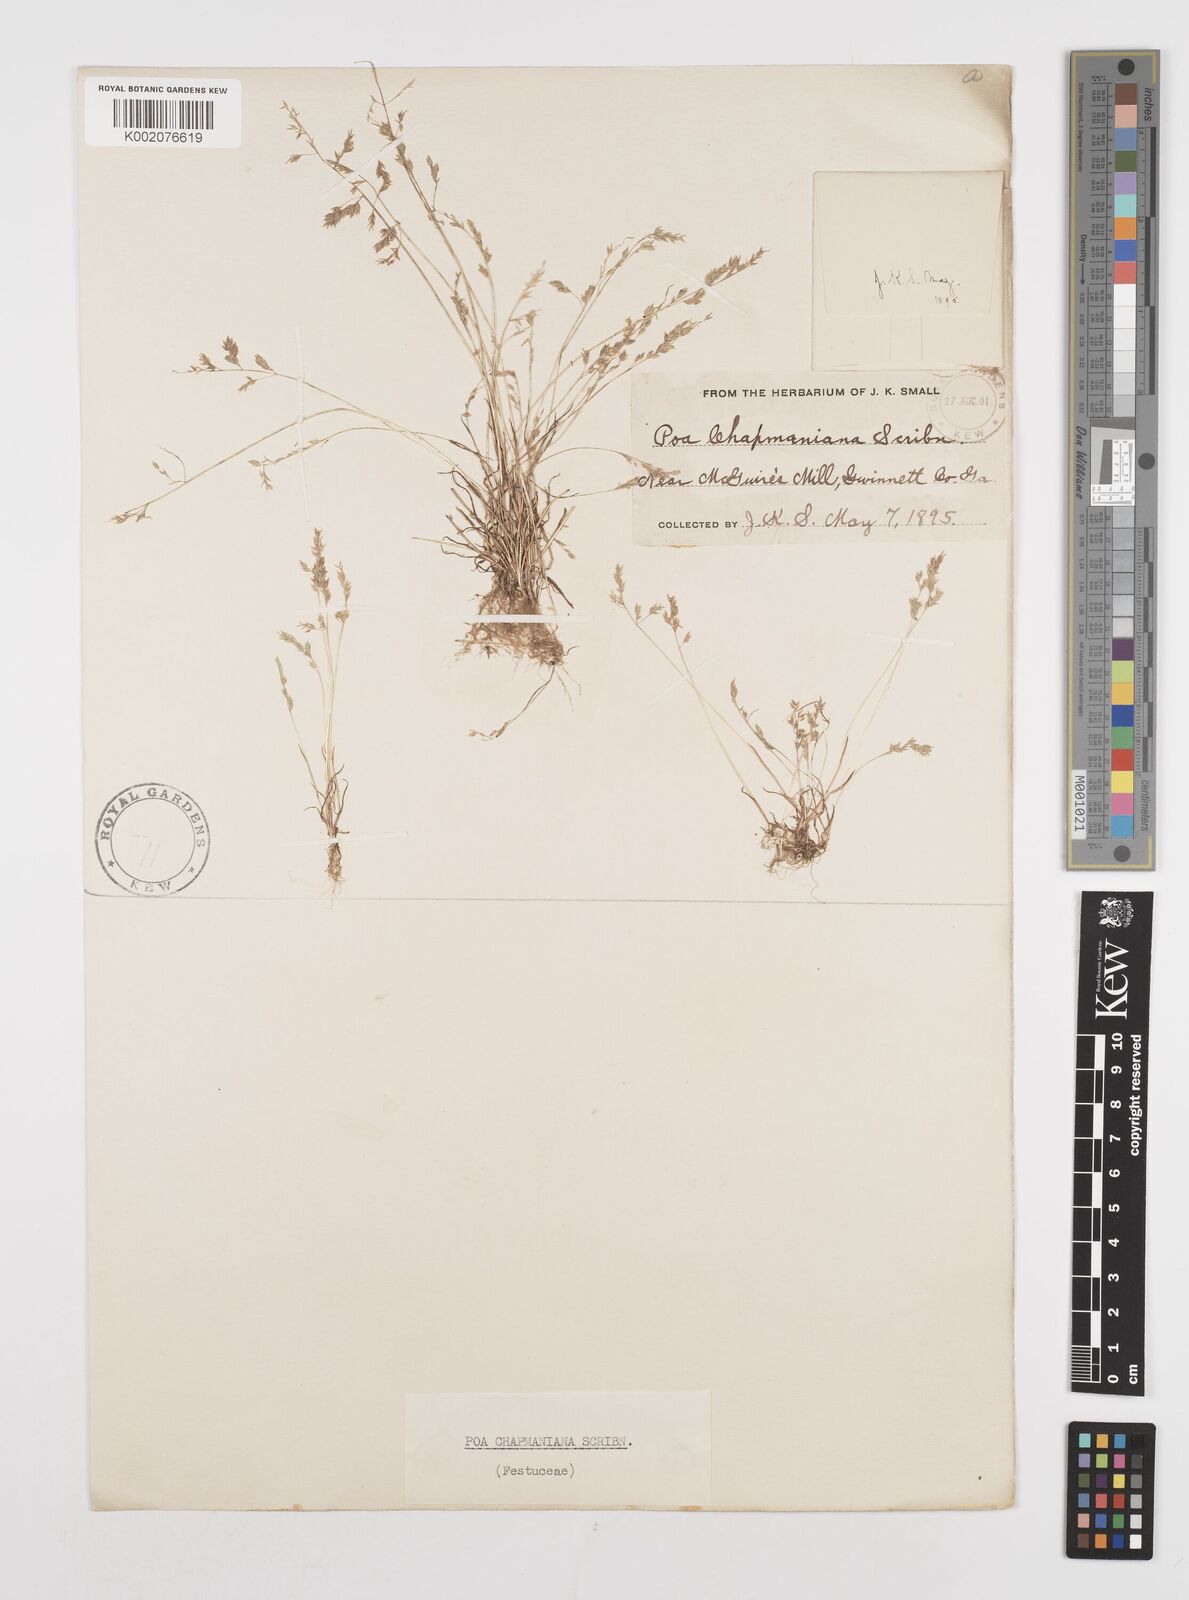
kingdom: Plantae
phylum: Tracheophyta
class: Liliopsida
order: Poales
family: Poaceae
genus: Poa
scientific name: Poa chapmaniana
